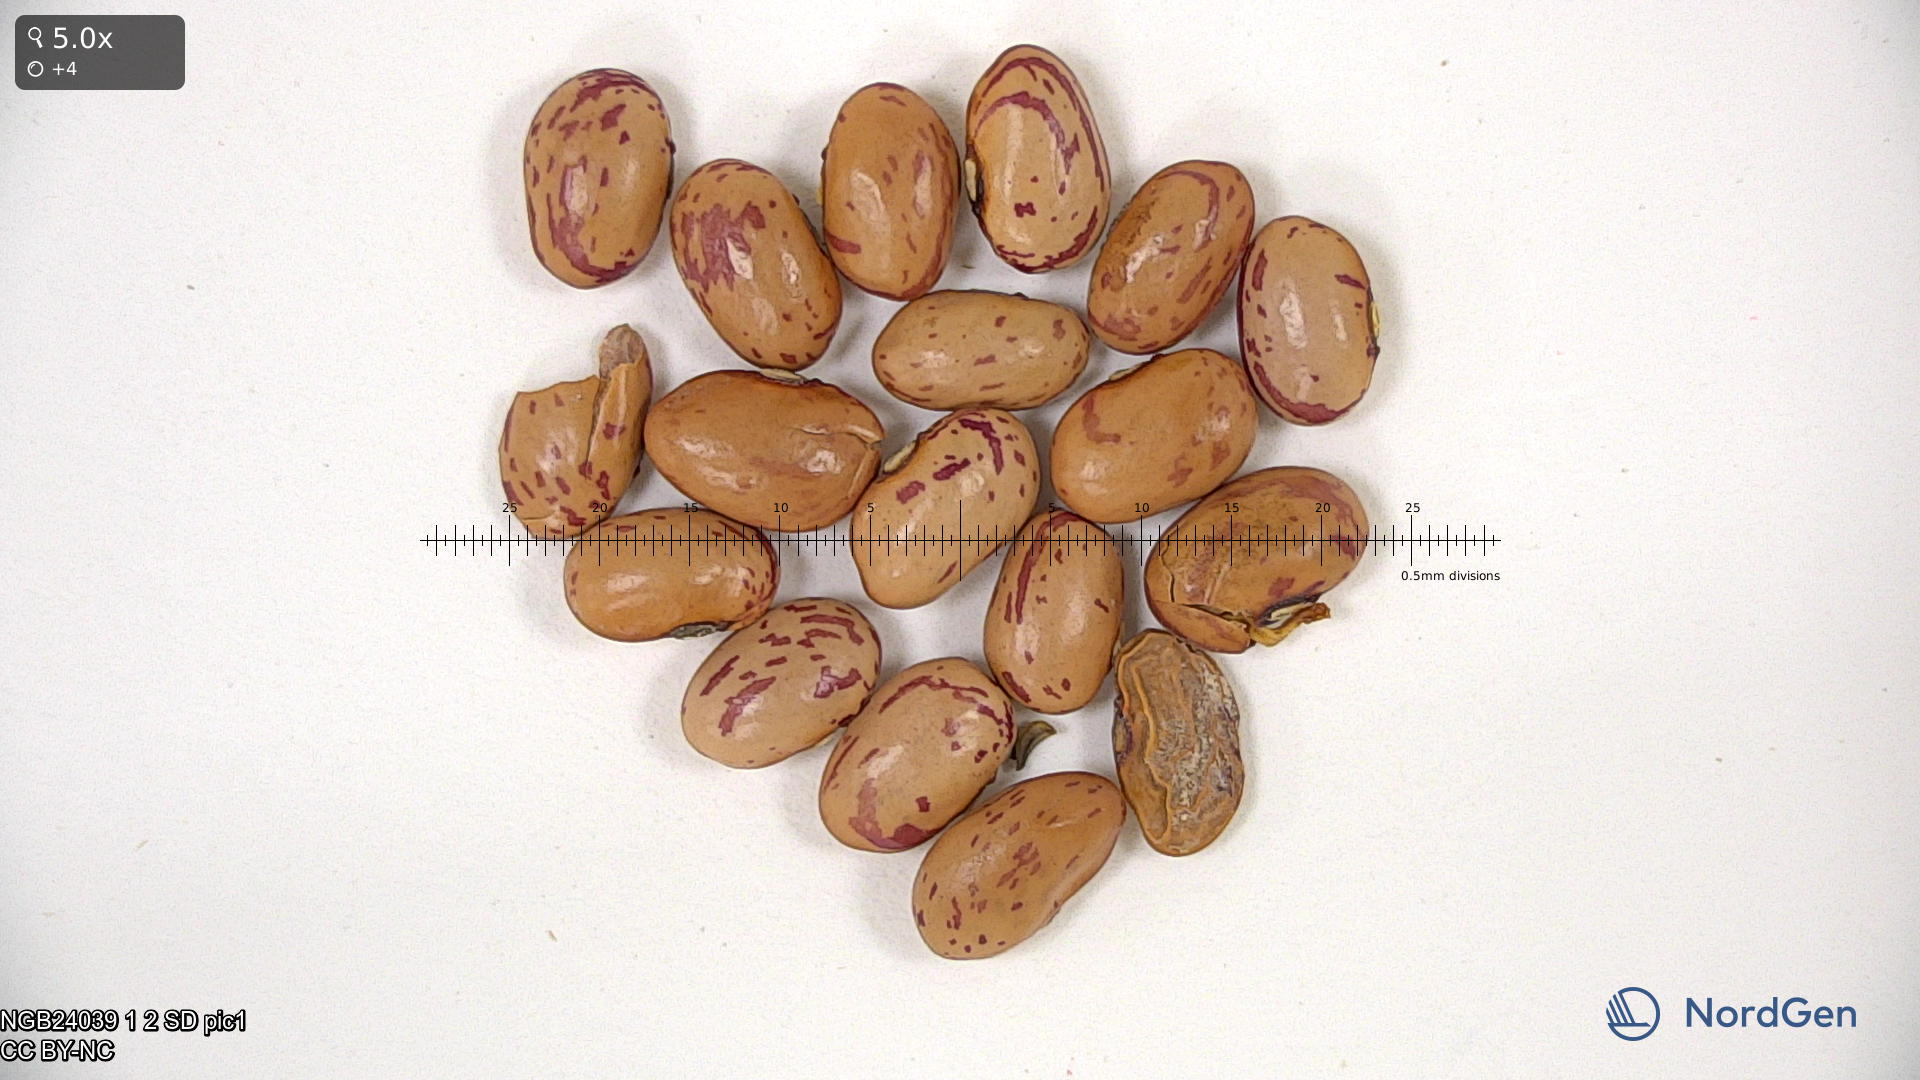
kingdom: Plantae
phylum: Tracheophyta
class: Magnoliopsida
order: Fabales
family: Fabaceae
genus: Phaseolus
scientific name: Phaseolus vulgaris
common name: Bean
